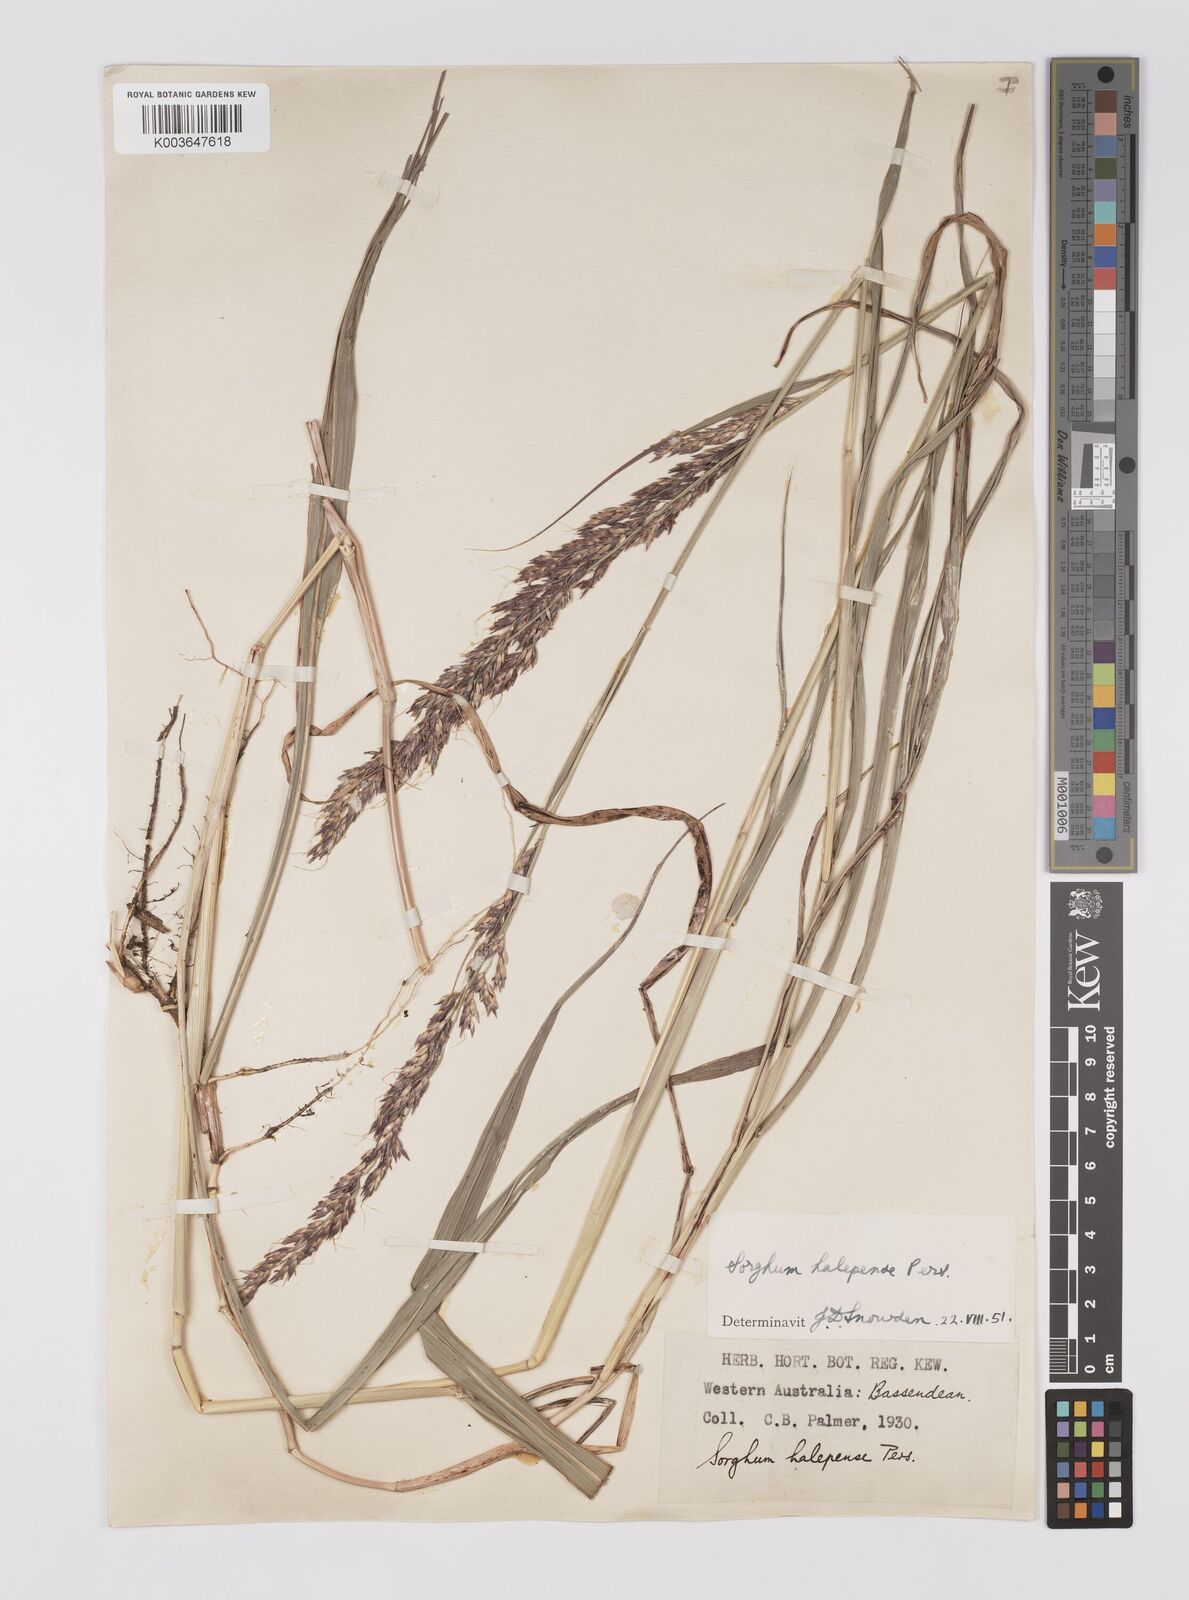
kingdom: Plantae
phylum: Tracheophyta
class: Liliopsida
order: Poales
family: Poaceae
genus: Sorghum
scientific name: Sorghum halepense
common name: Johnson-grass
